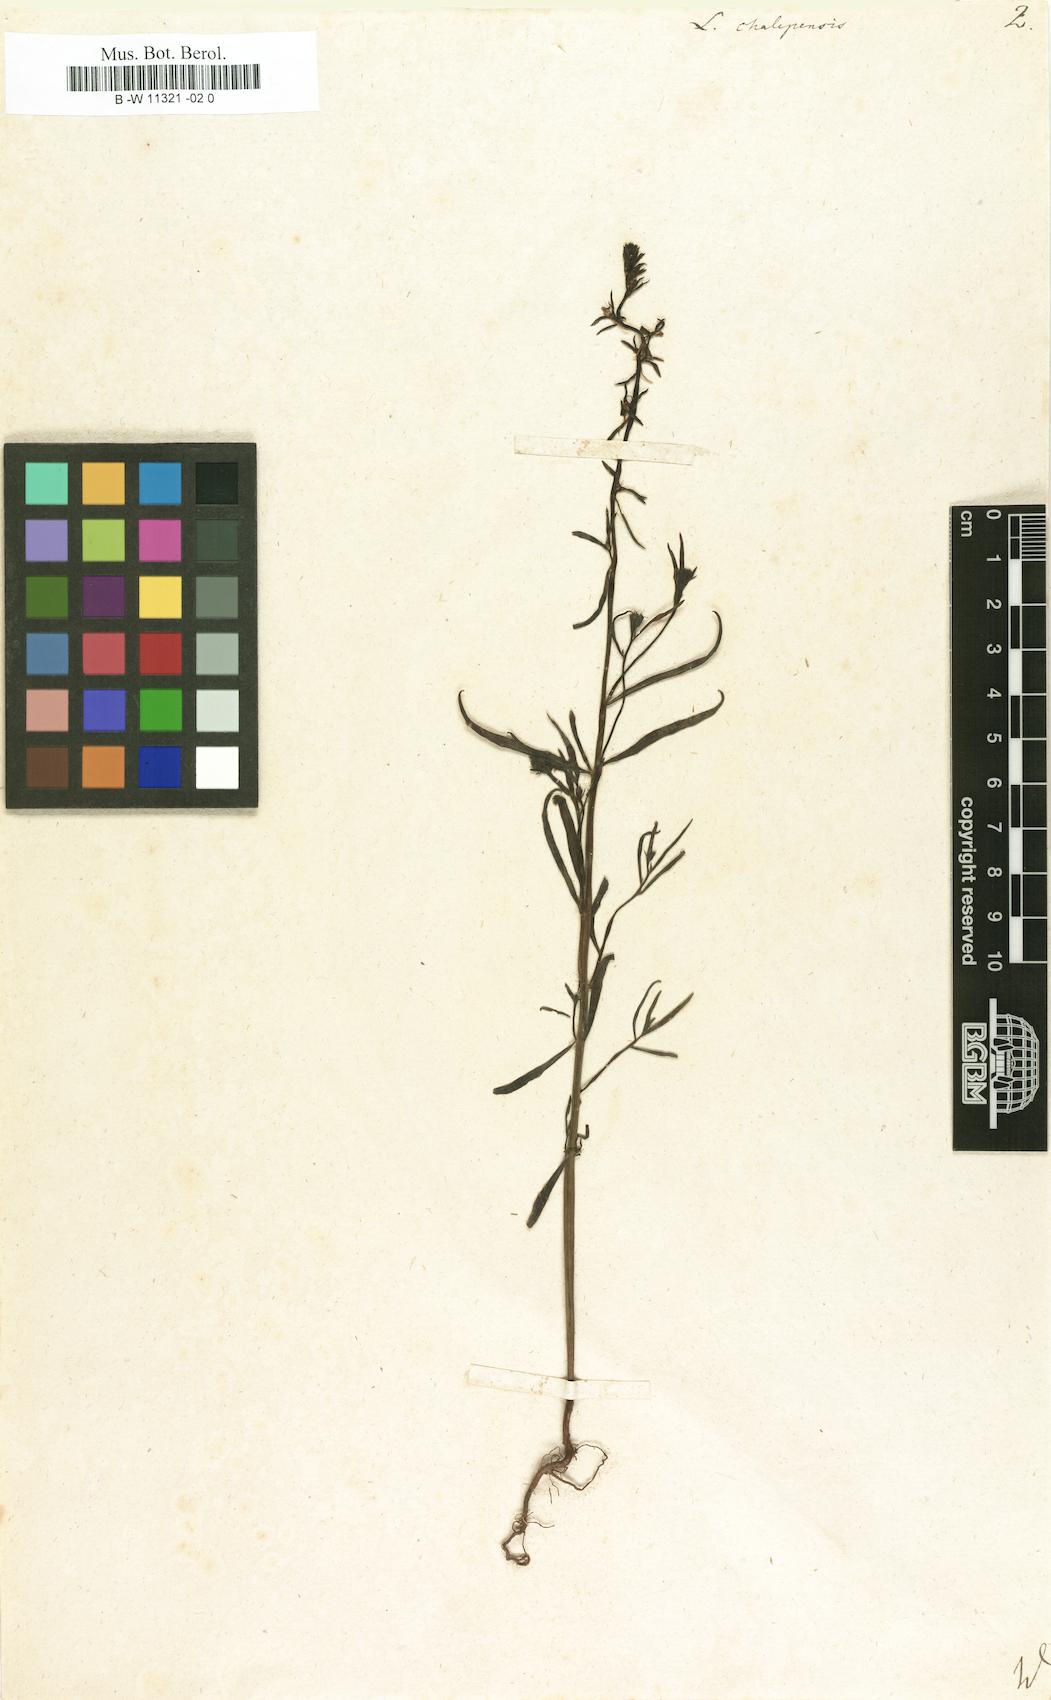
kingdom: Plantae
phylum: Tracheophyta
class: Magnoliopsida
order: Lamiales
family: Plantaginaceae
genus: Linaria
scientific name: Linaria chalepensis
